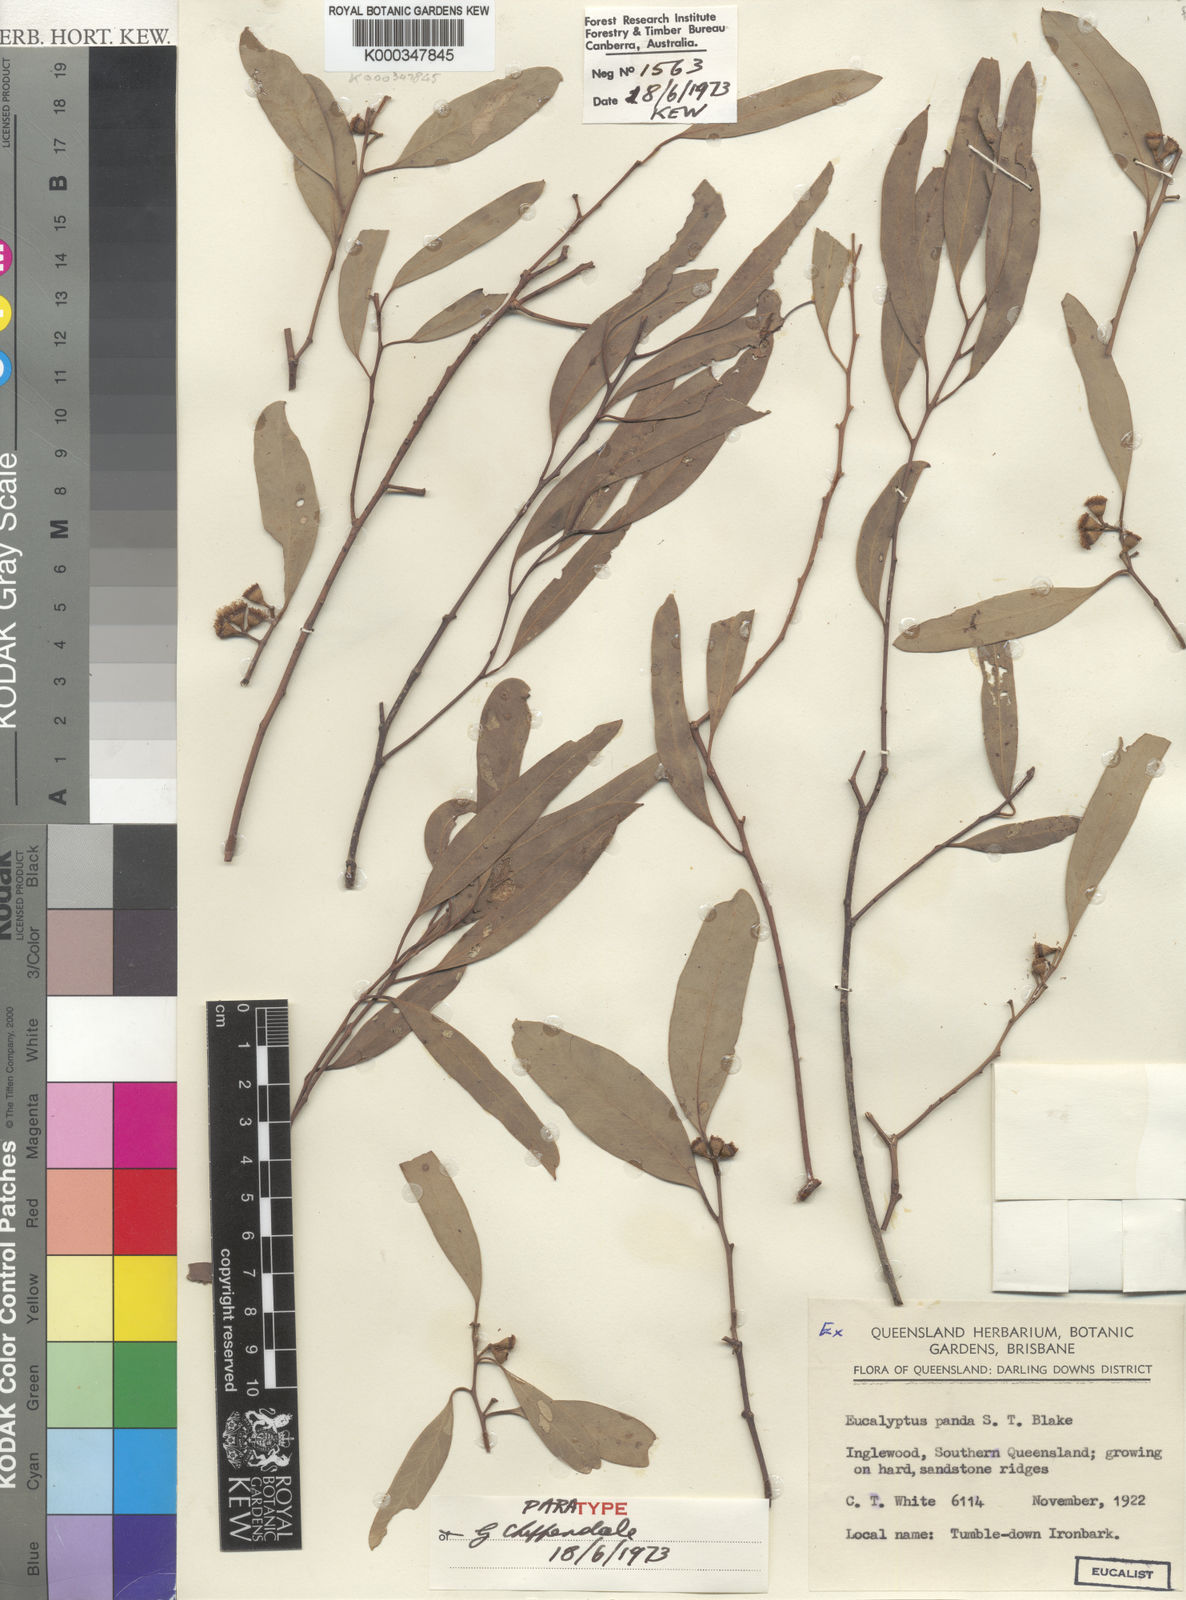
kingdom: Plantae
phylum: Tracheophyta
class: Magnoliopsida
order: Myrtales
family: Myrtaceae
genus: Eucalyptus
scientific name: Eucalyptus panda
